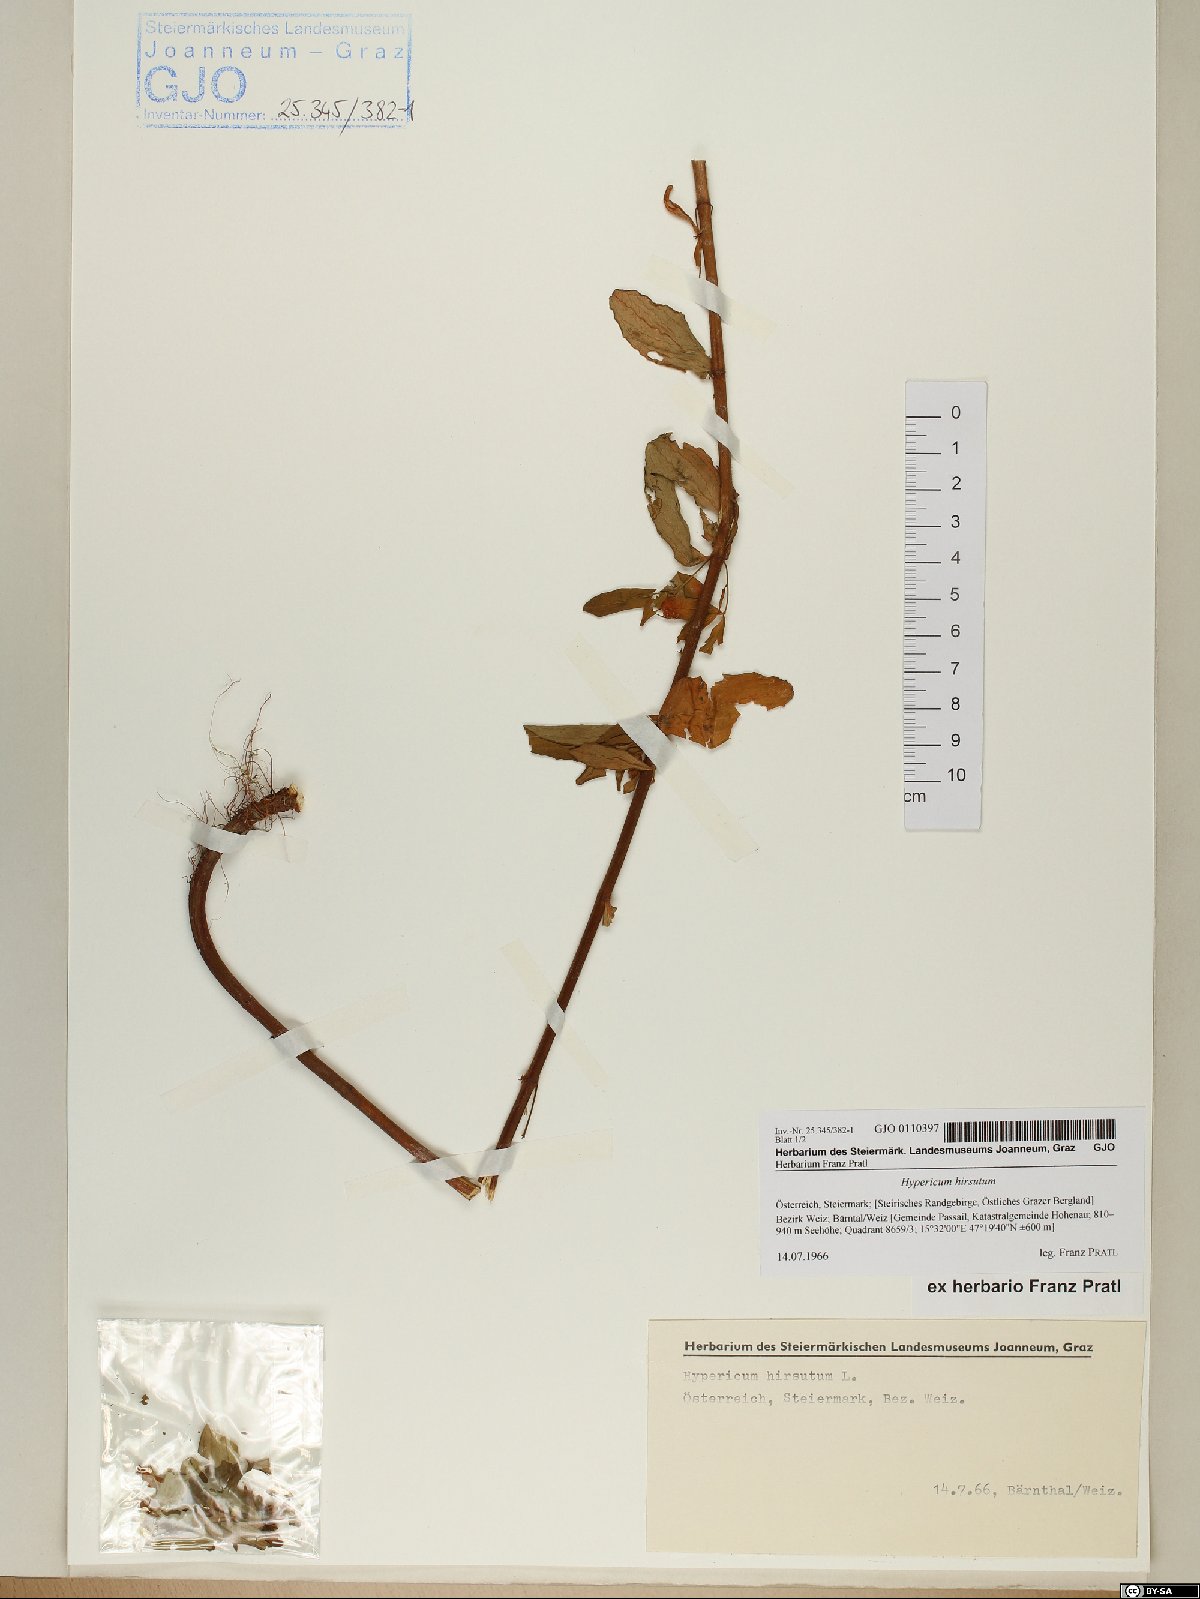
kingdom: Plantae
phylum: Tracheophyta
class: Magnoliopsida
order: Malpighiales
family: Hypericaceae
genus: Hypericum
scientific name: Hypericum hirsutum
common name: Hairy st. john's-wort
